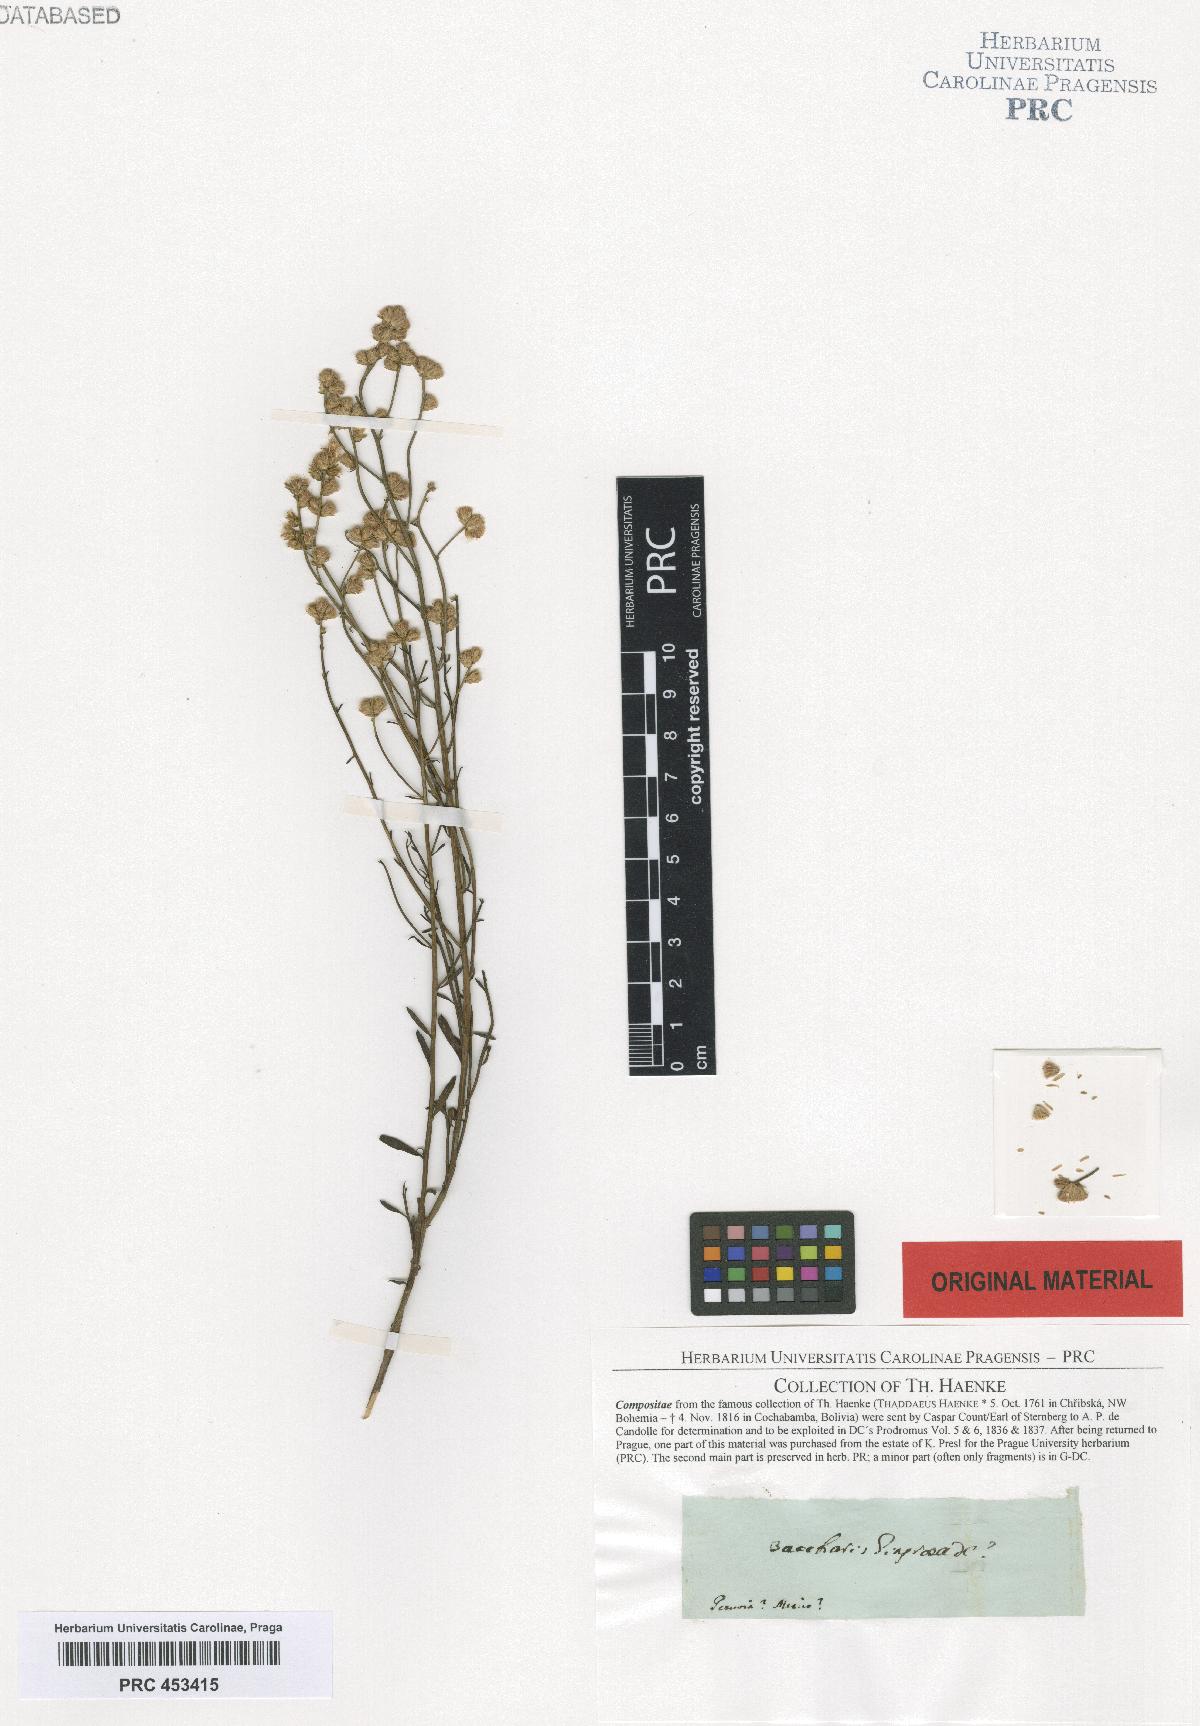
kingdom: Plantae
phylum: Tracheophyta
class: Magnoliopsida
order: Asterales
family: Asteraceae
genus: Baccharis
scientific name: Baccharis glutinosa
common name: Saltmarsh baccharis
